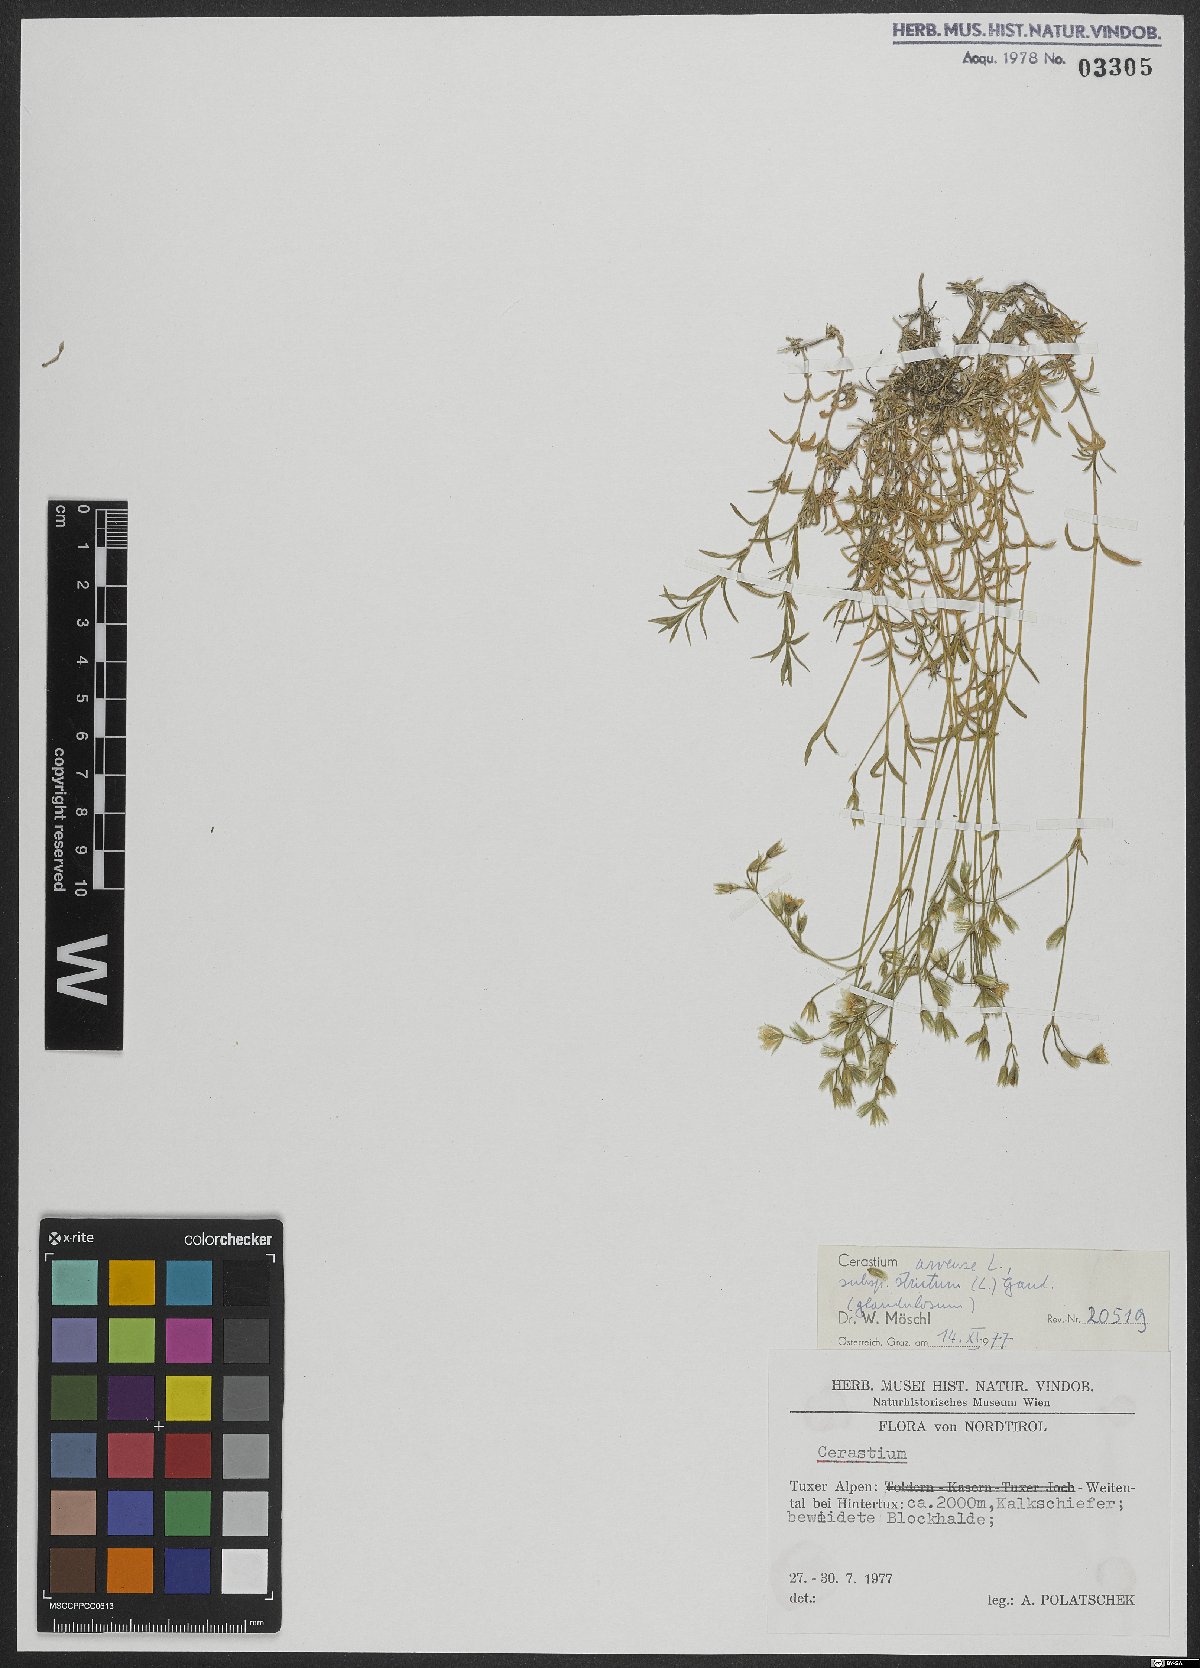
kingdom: Plantae
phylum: Tracheophyta
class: Magnoliopsida
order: Caryophyllales
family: Caryophyllaceae
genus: Cerastium
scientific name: Cerastium elongatum
